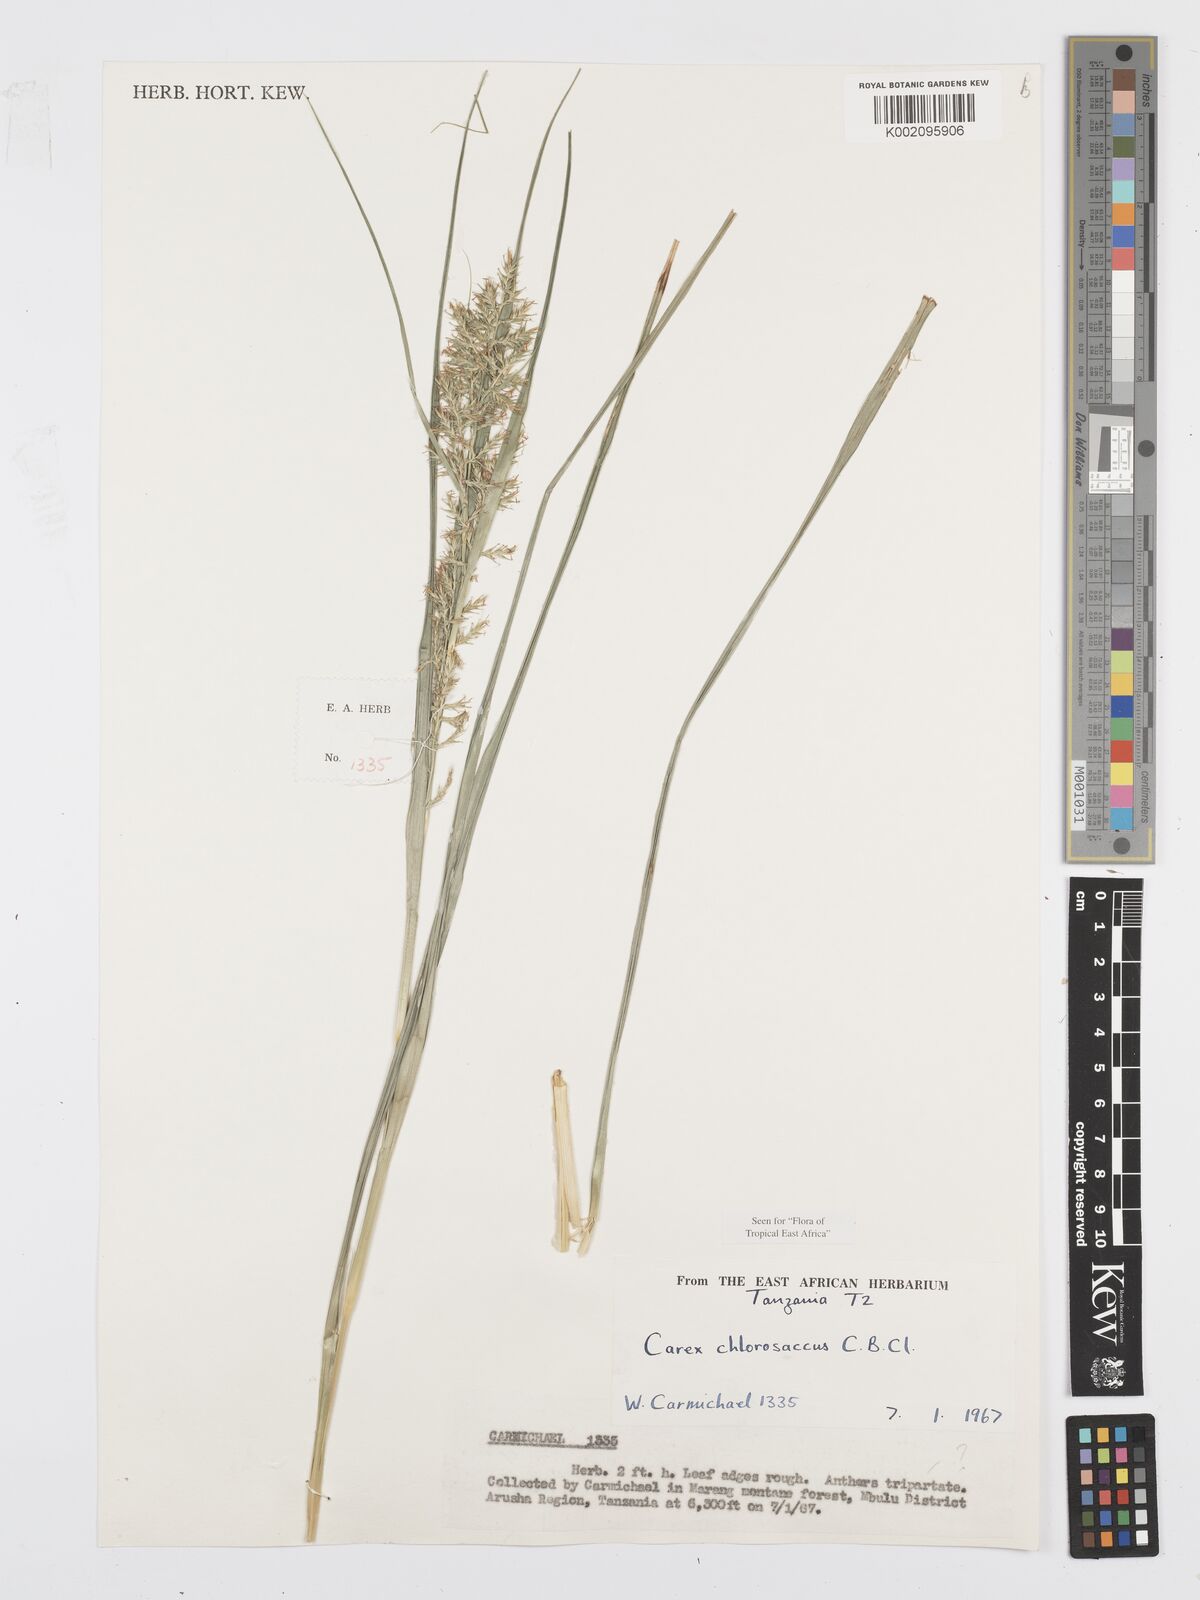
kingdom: Plantae
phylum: Tracheophyta
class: Liliopsida
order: Poales
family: Cyperaceae
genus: Carex
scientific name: Carex chlorosaccus
